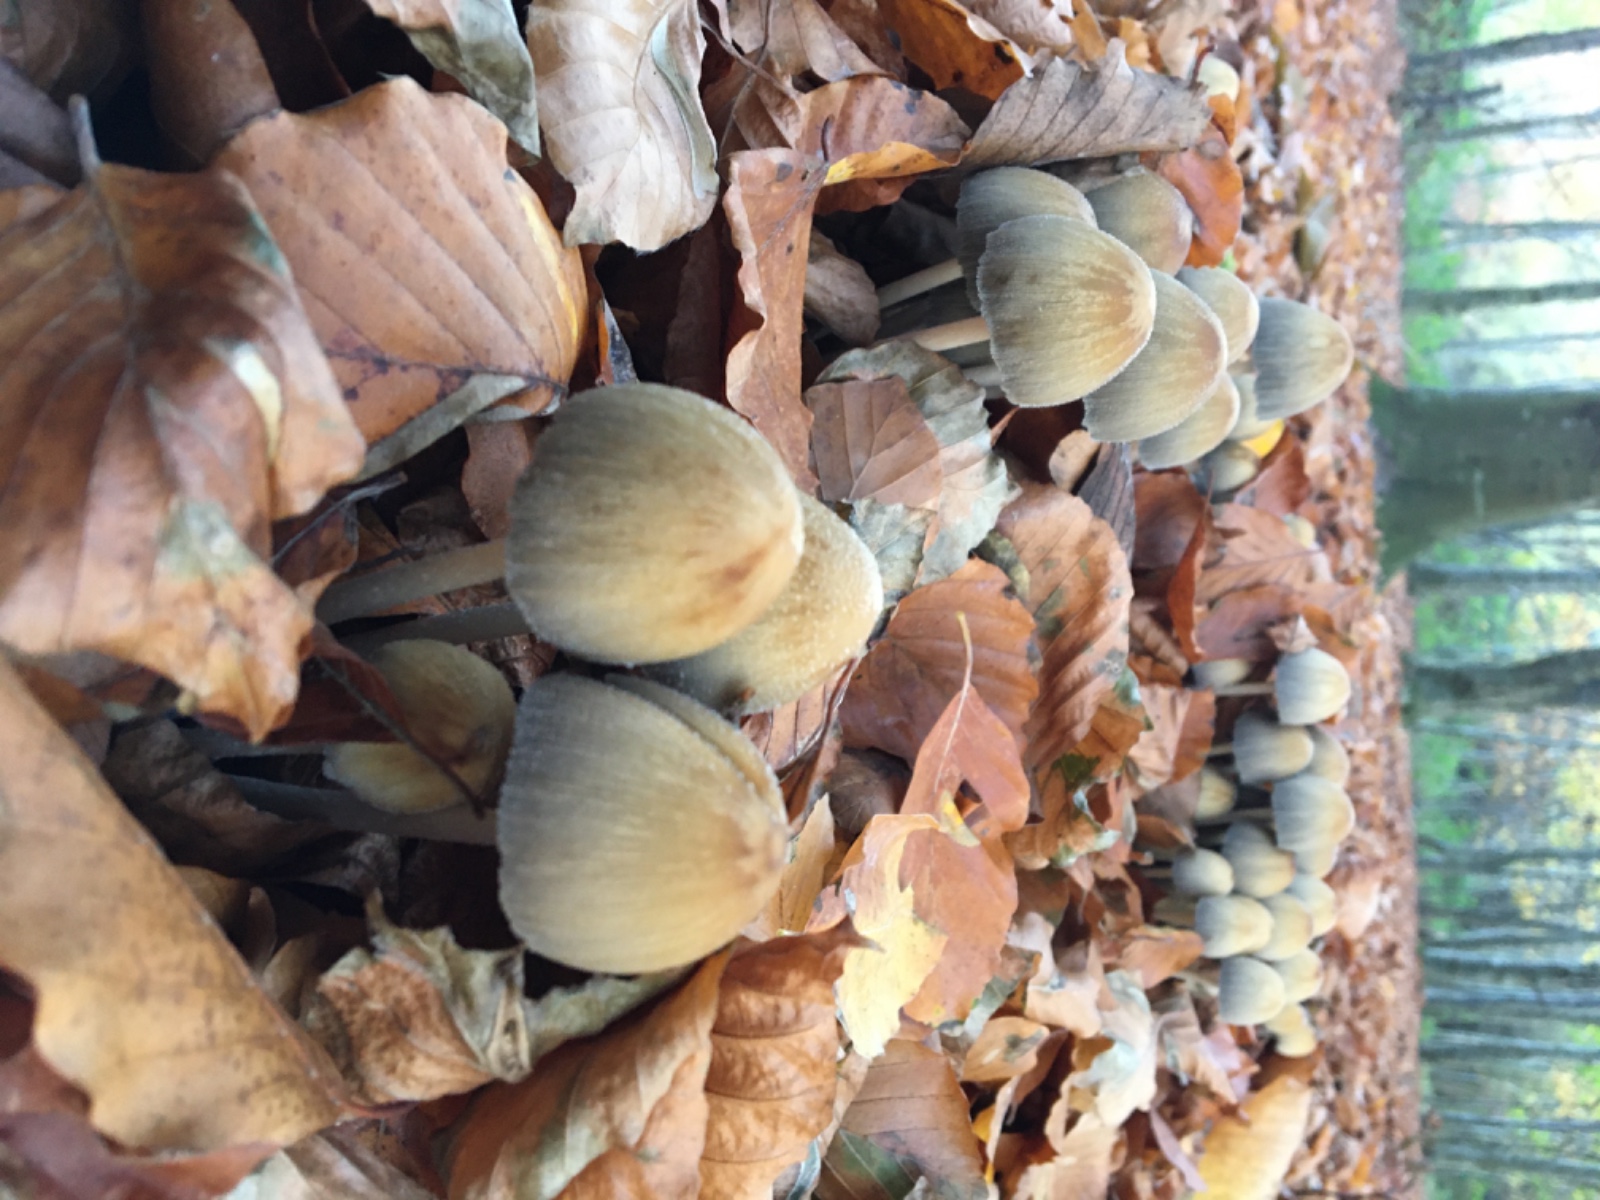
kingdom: Fungi
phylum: Basidiomycota
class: Agaricomycetes
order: Agaricales
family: Psathyrellaceae
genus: Coprinellus
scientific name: Coprinellus micaceus
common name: glimmer-blækhat
